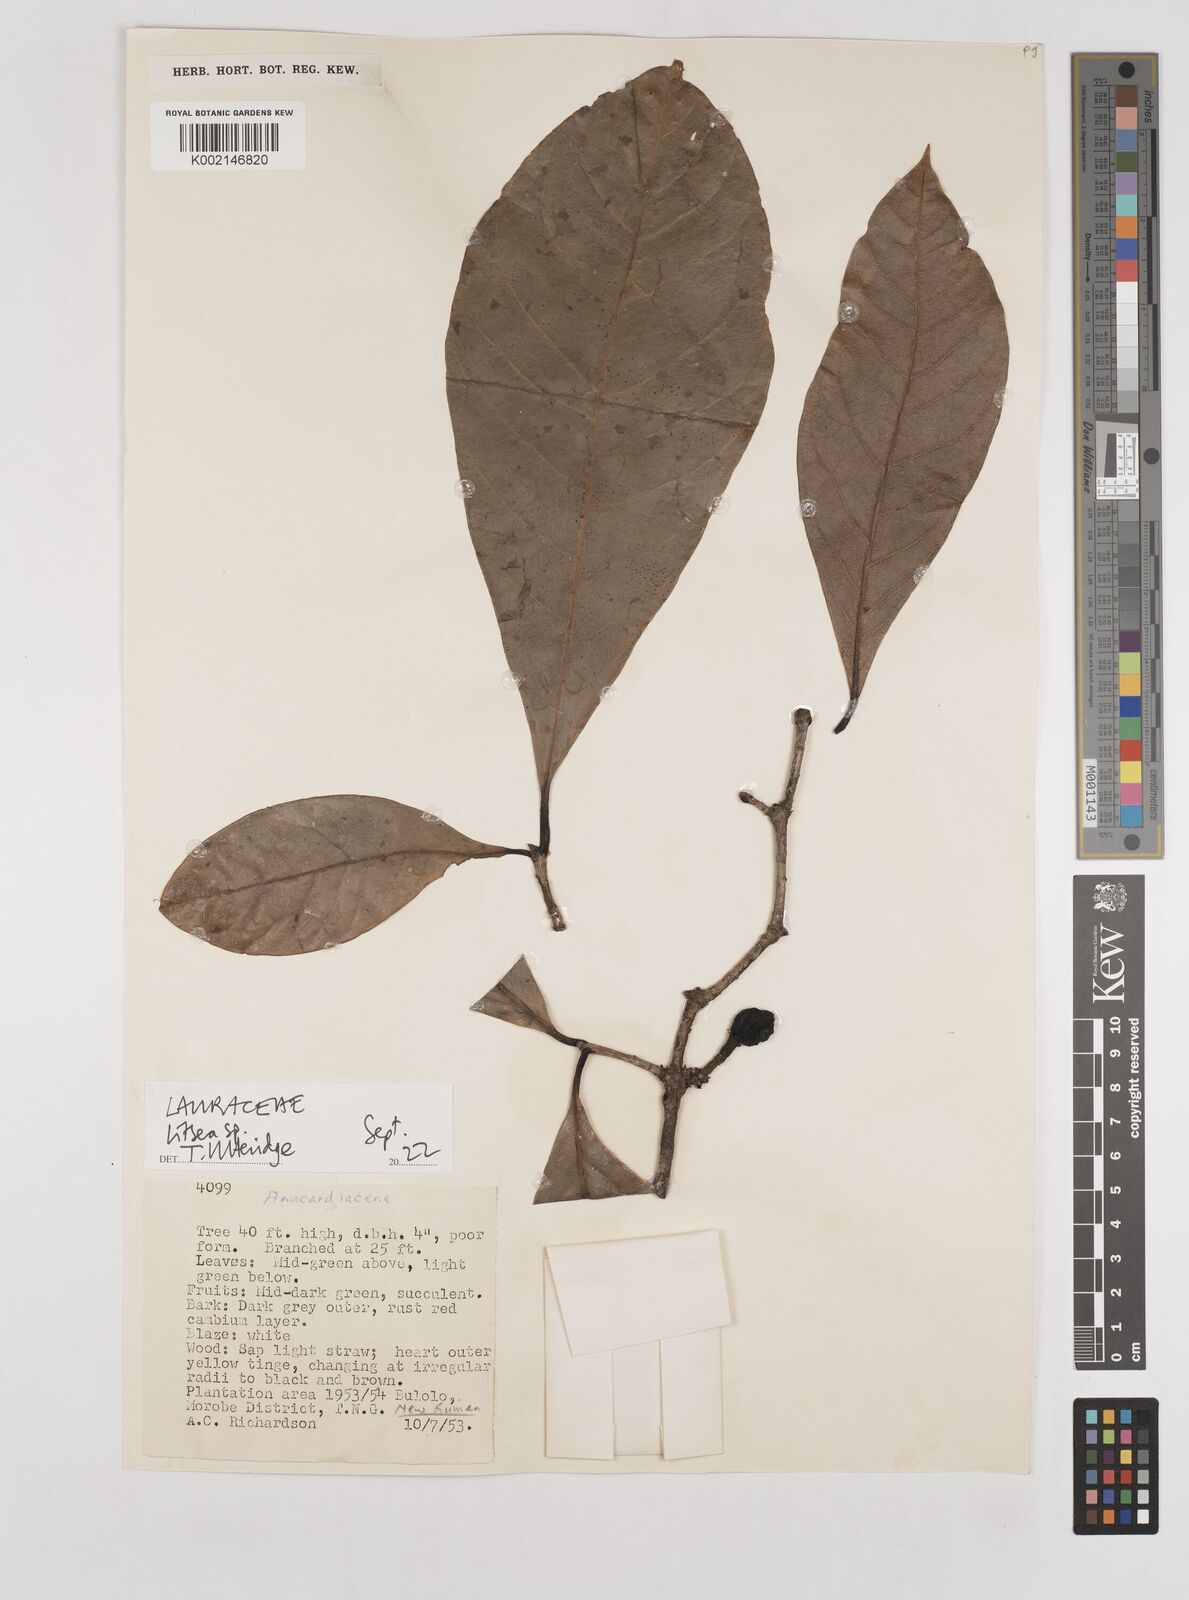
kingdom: Plantae
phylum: Tracheophyta
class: Magnoliopsida
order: Laurales
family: Lauraceae
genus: Litsea
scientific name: Litsea
